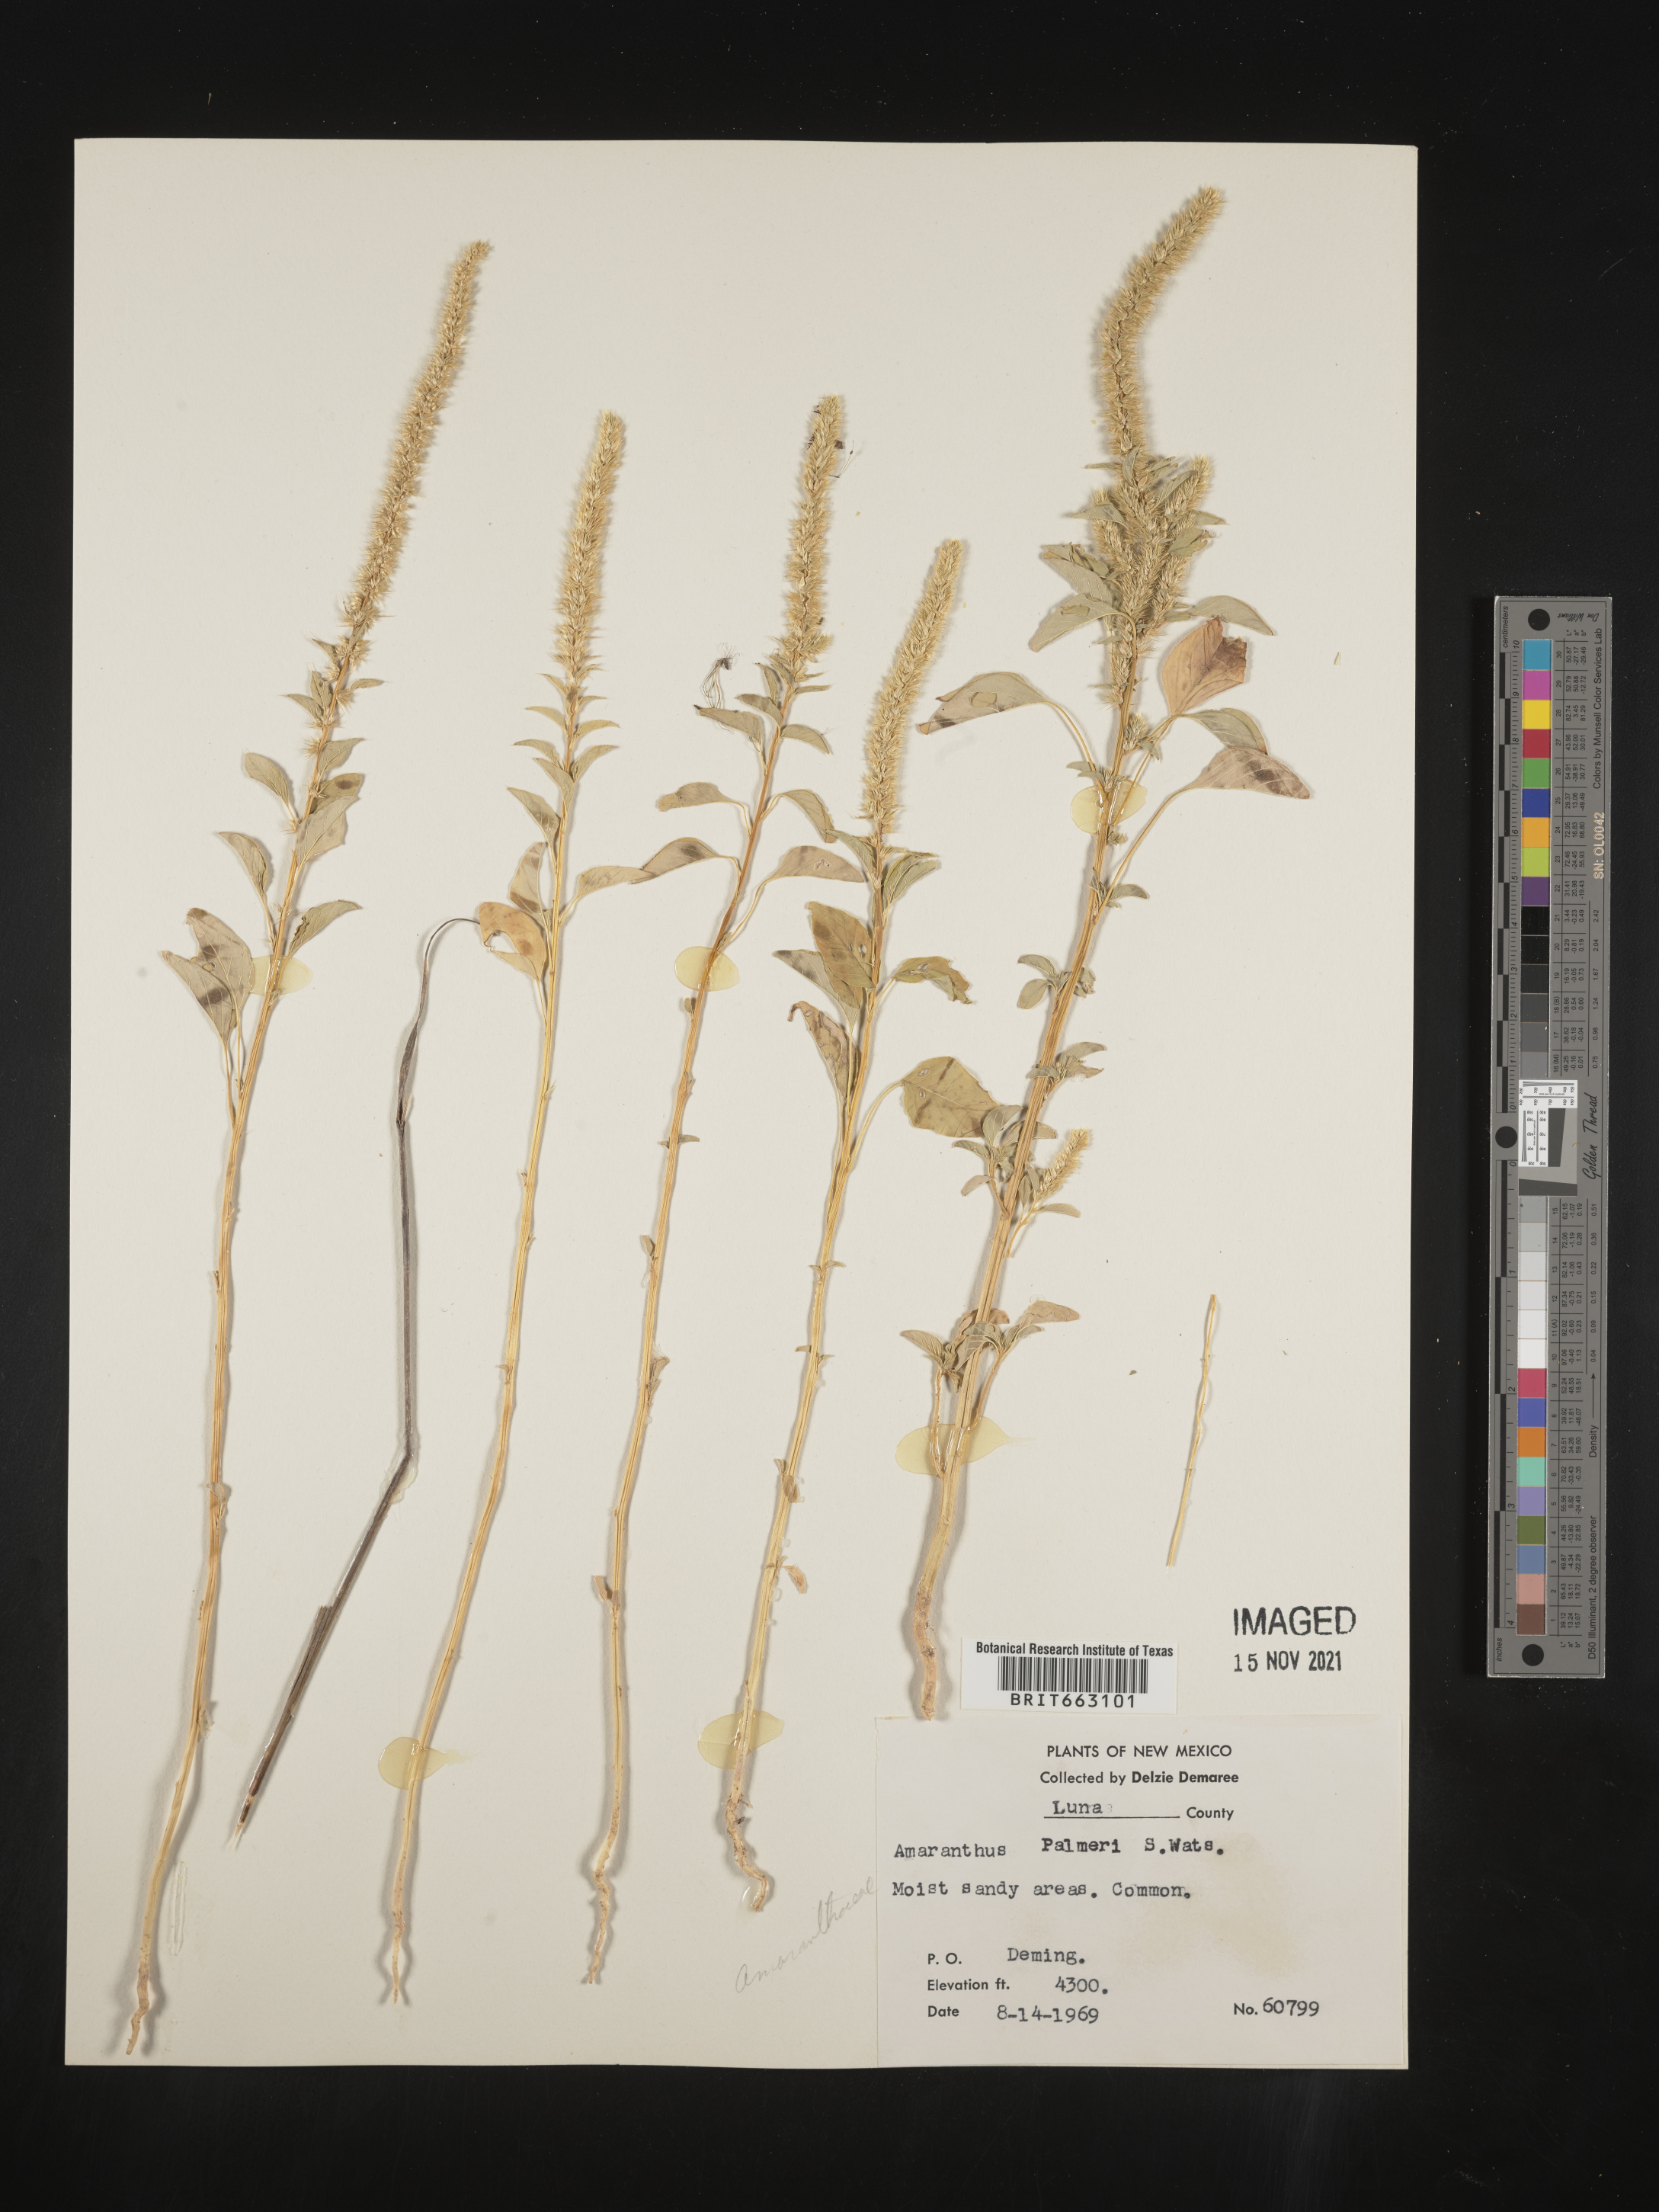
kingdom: Plantae
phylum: Tracheophyta
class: Magnoliopsida
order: Caryophyllales
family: Amaranthaceae
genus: Amaranthus
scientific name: Amaranthus palmeri
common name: Dioecious amaranth
